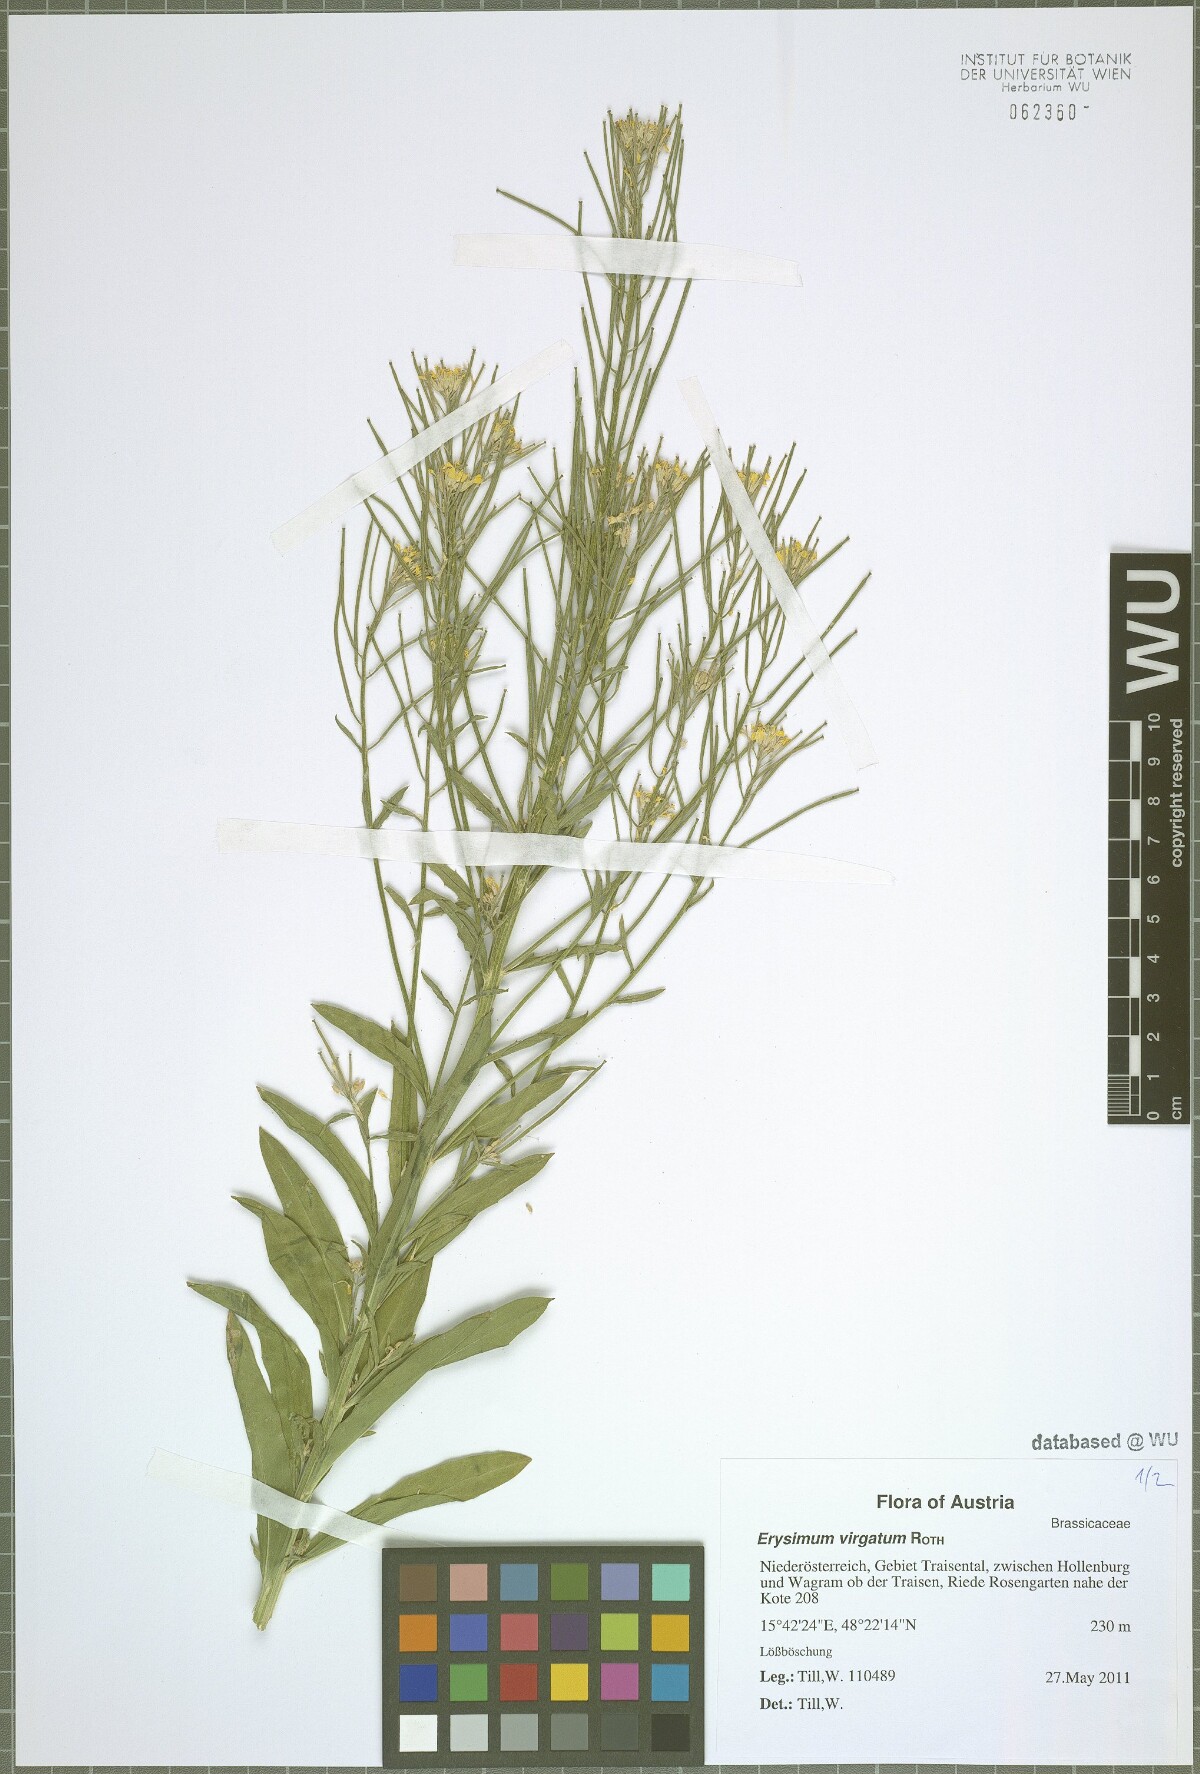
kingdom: Plantae
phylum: Tracheophyta
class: Magnoliopsida
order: Brassicales
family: Brassicaceae
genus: Erysimum
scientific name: Erysimum virgatum
